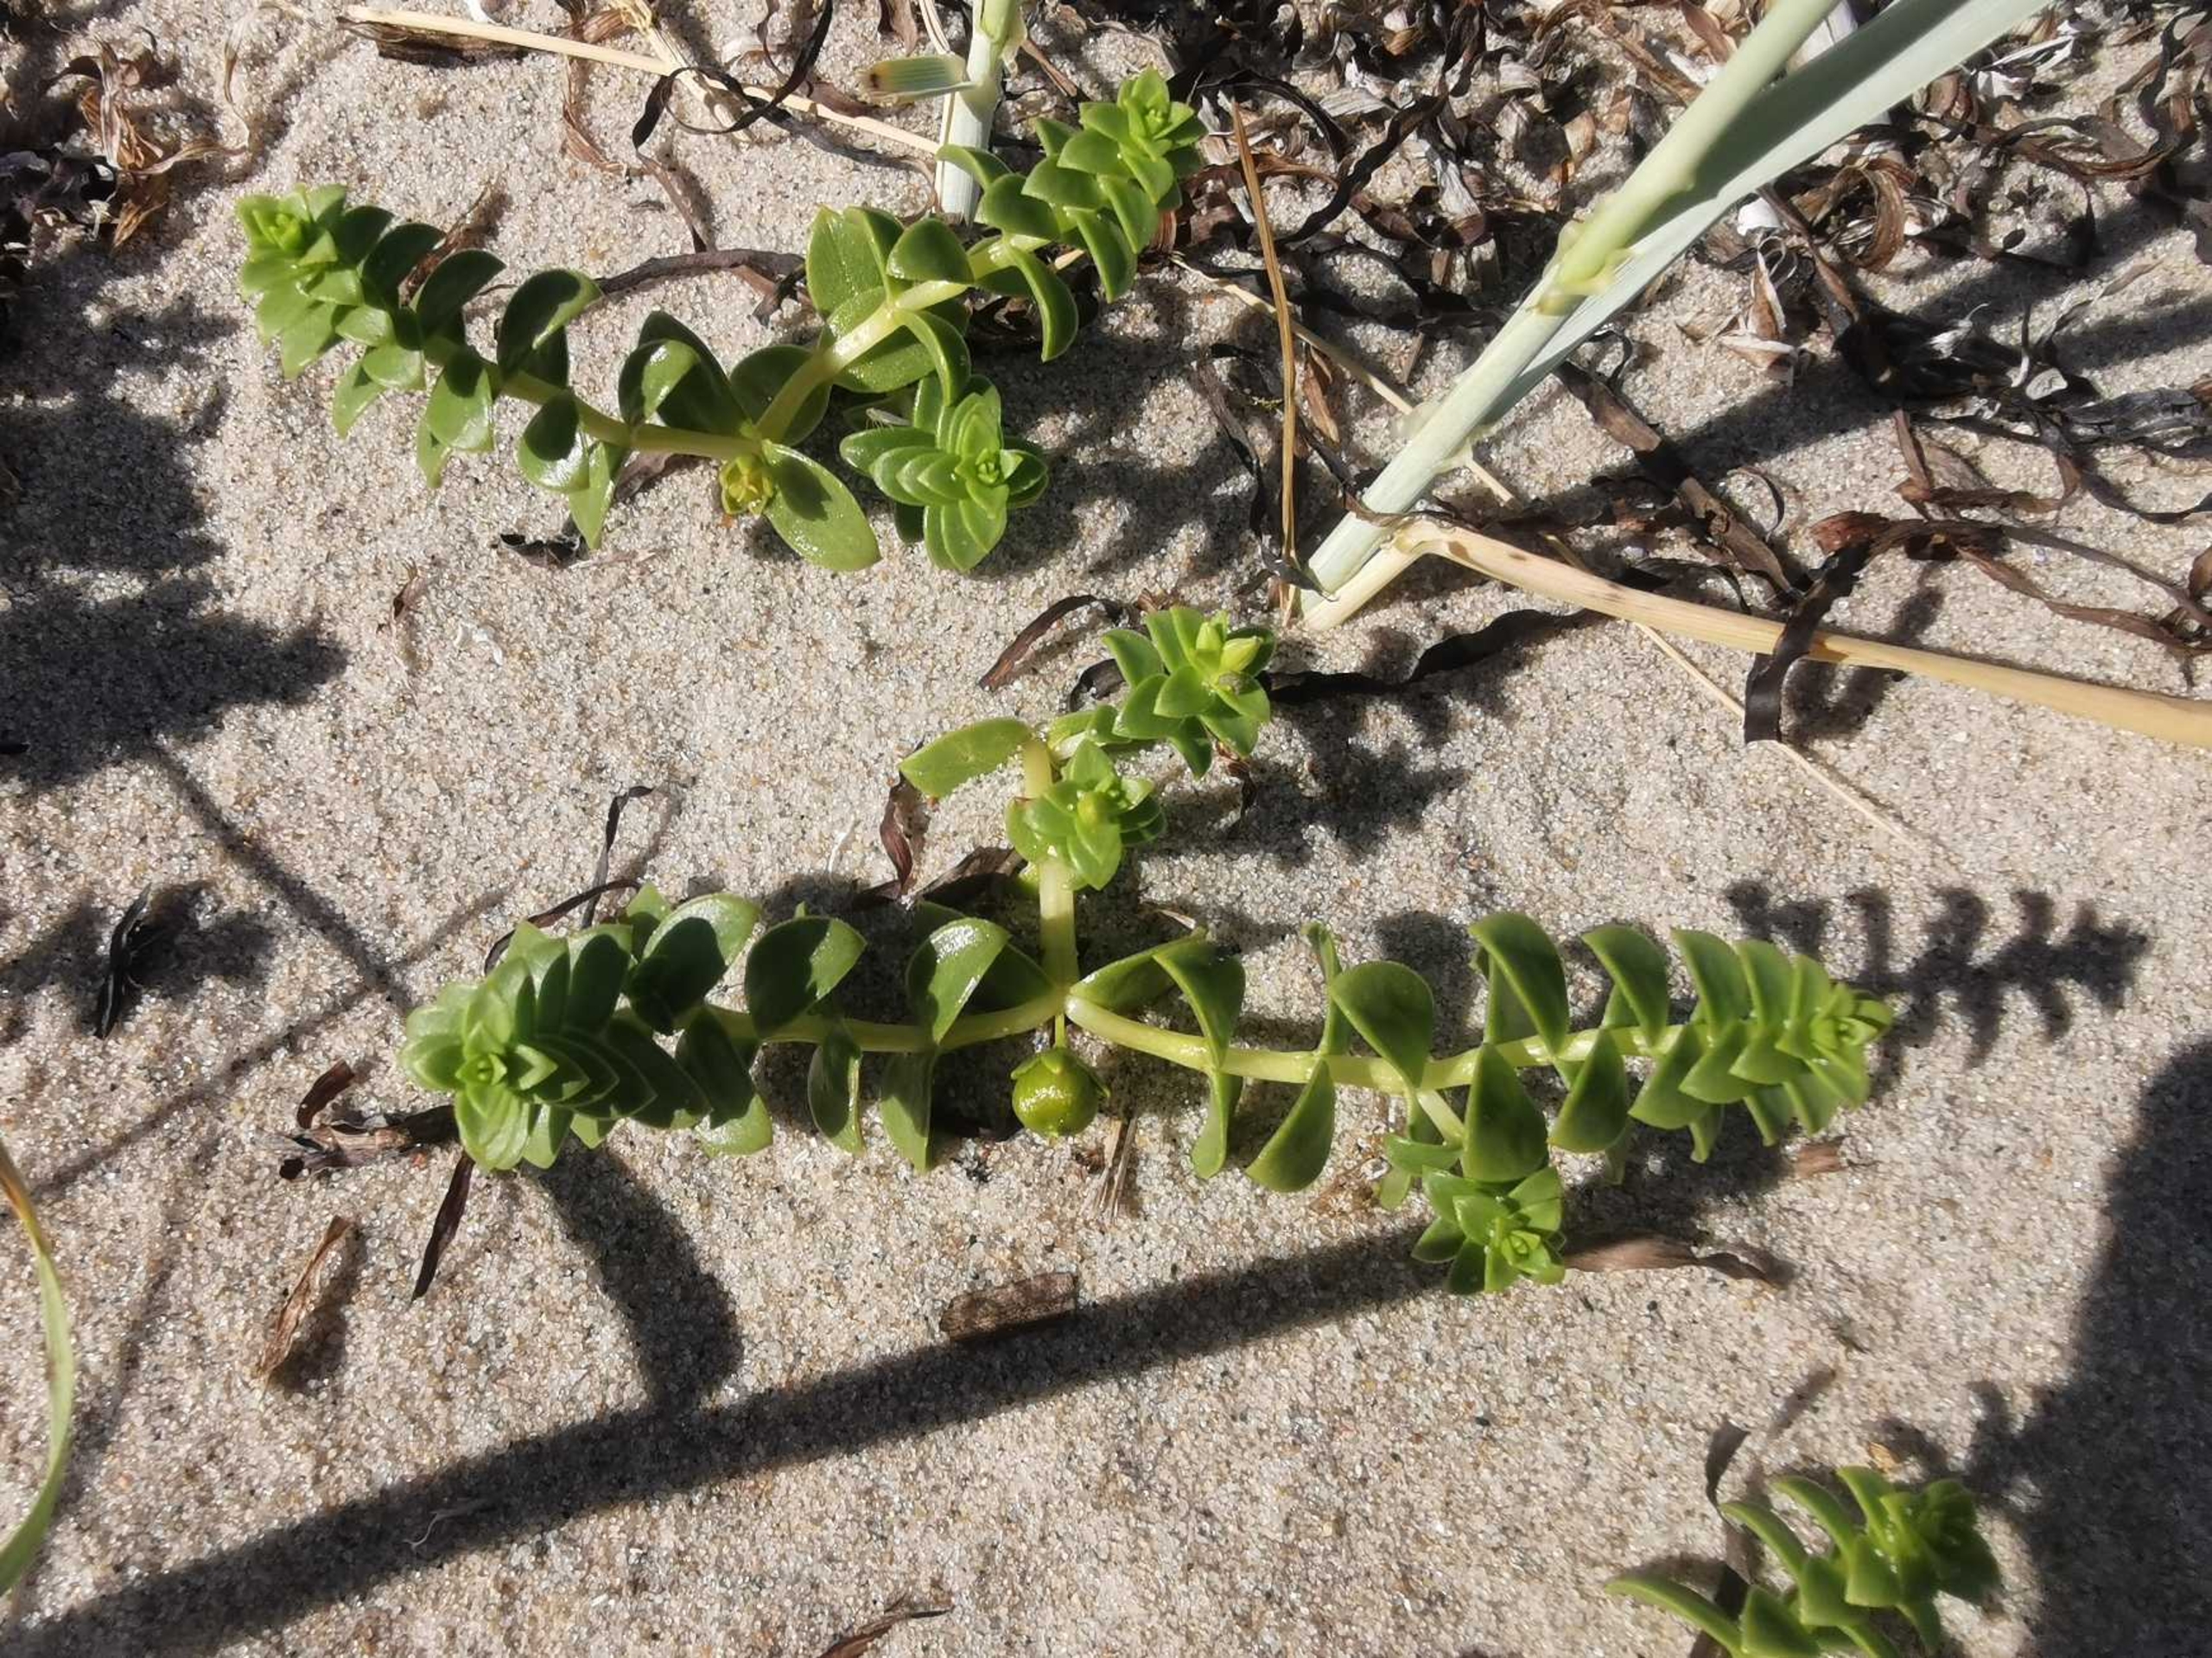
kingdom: Plantae
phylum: Tracheophyta
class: Magnoliopsida
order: Caryophyllales
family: Caryophyllaceae
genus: Honckenya
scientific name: Honckenya peploides
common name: Strandarve
